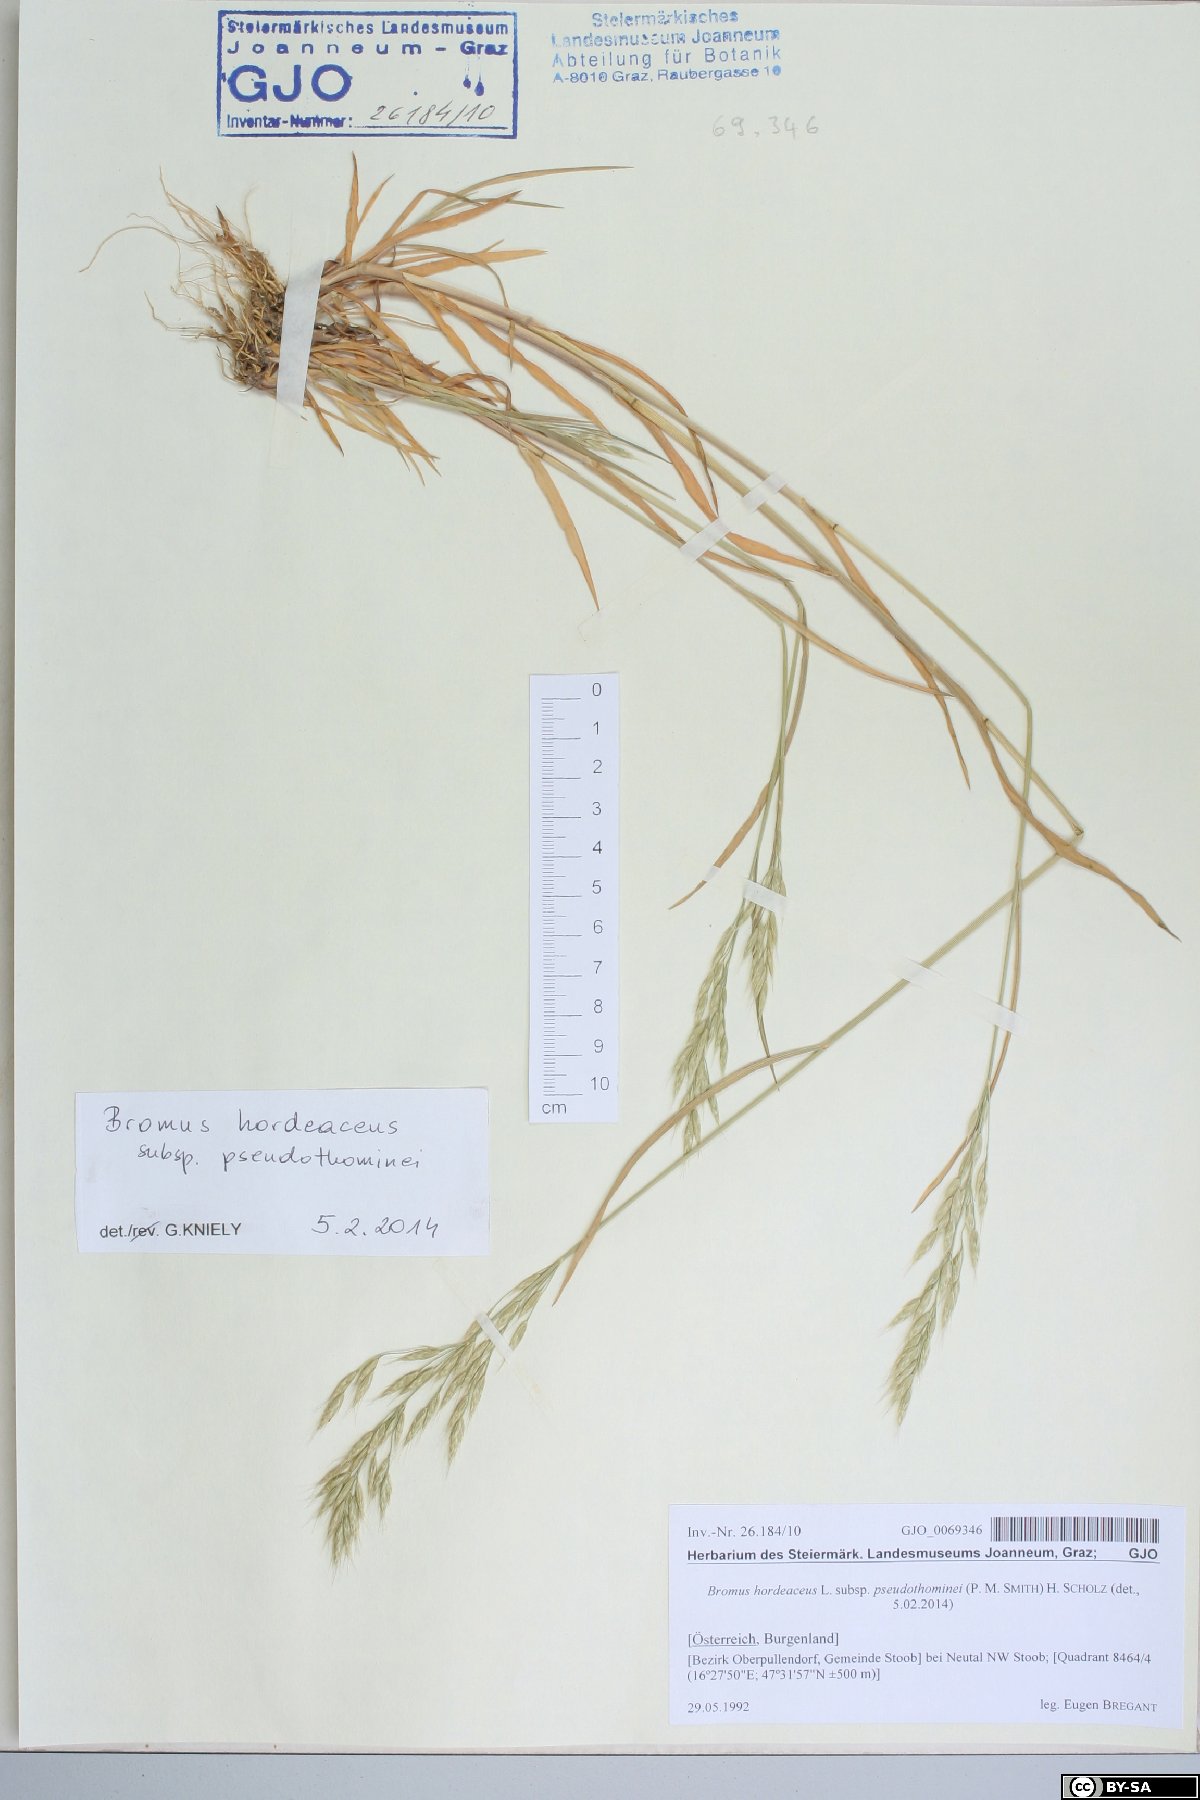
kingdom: Plantae
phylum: Tracheophyta
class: Liliopsida
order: Poales
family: Poaceae
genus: Bromus
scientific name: Bromus ferronii
